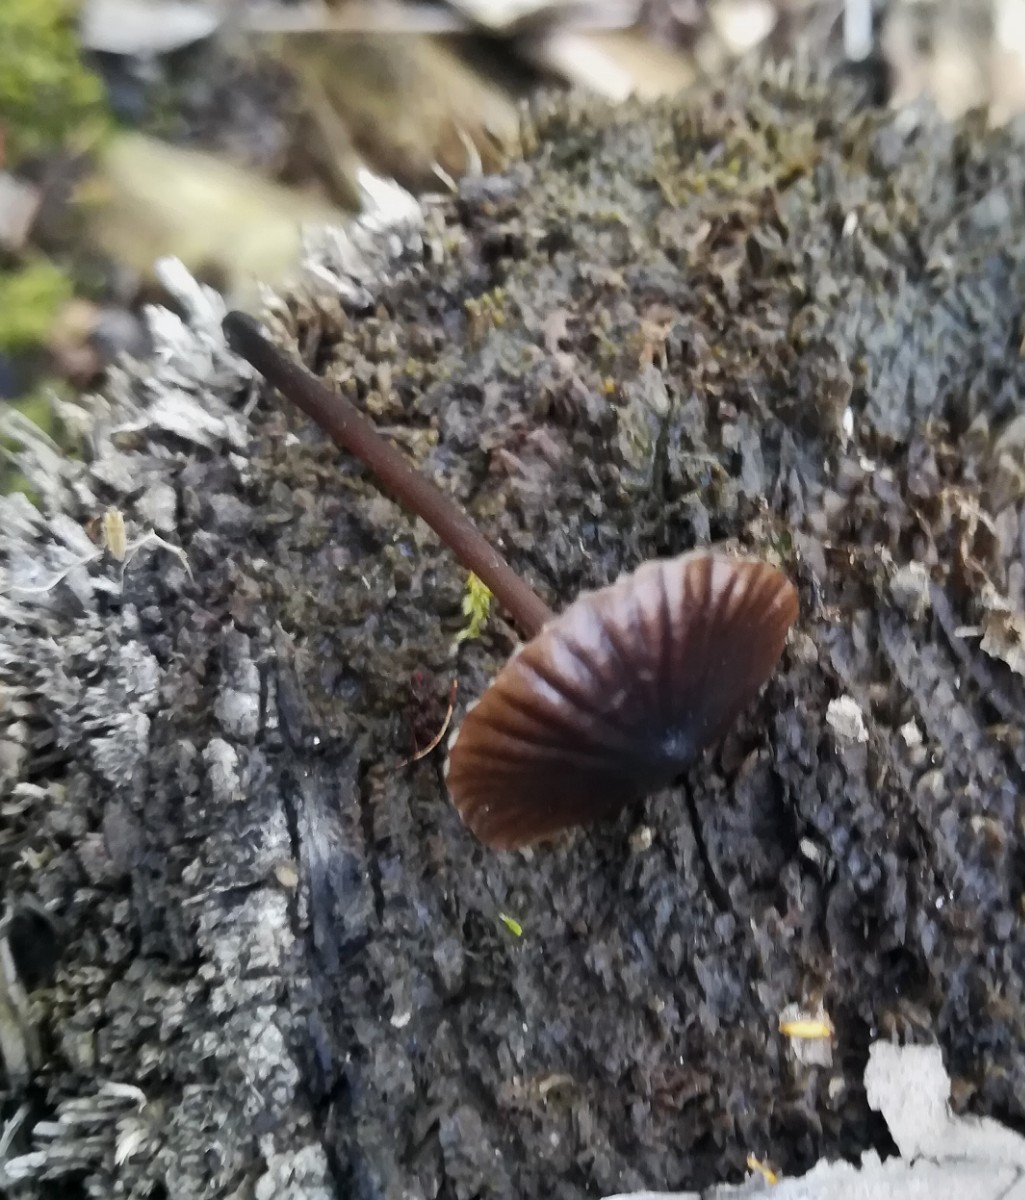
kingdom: Fungi
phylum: Basidiomycota
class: Agaricomycetes
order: Agaricales
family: Mycenaceae
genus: Mycena
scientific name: Mycena galopus
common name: hvidmælket huesvamp
